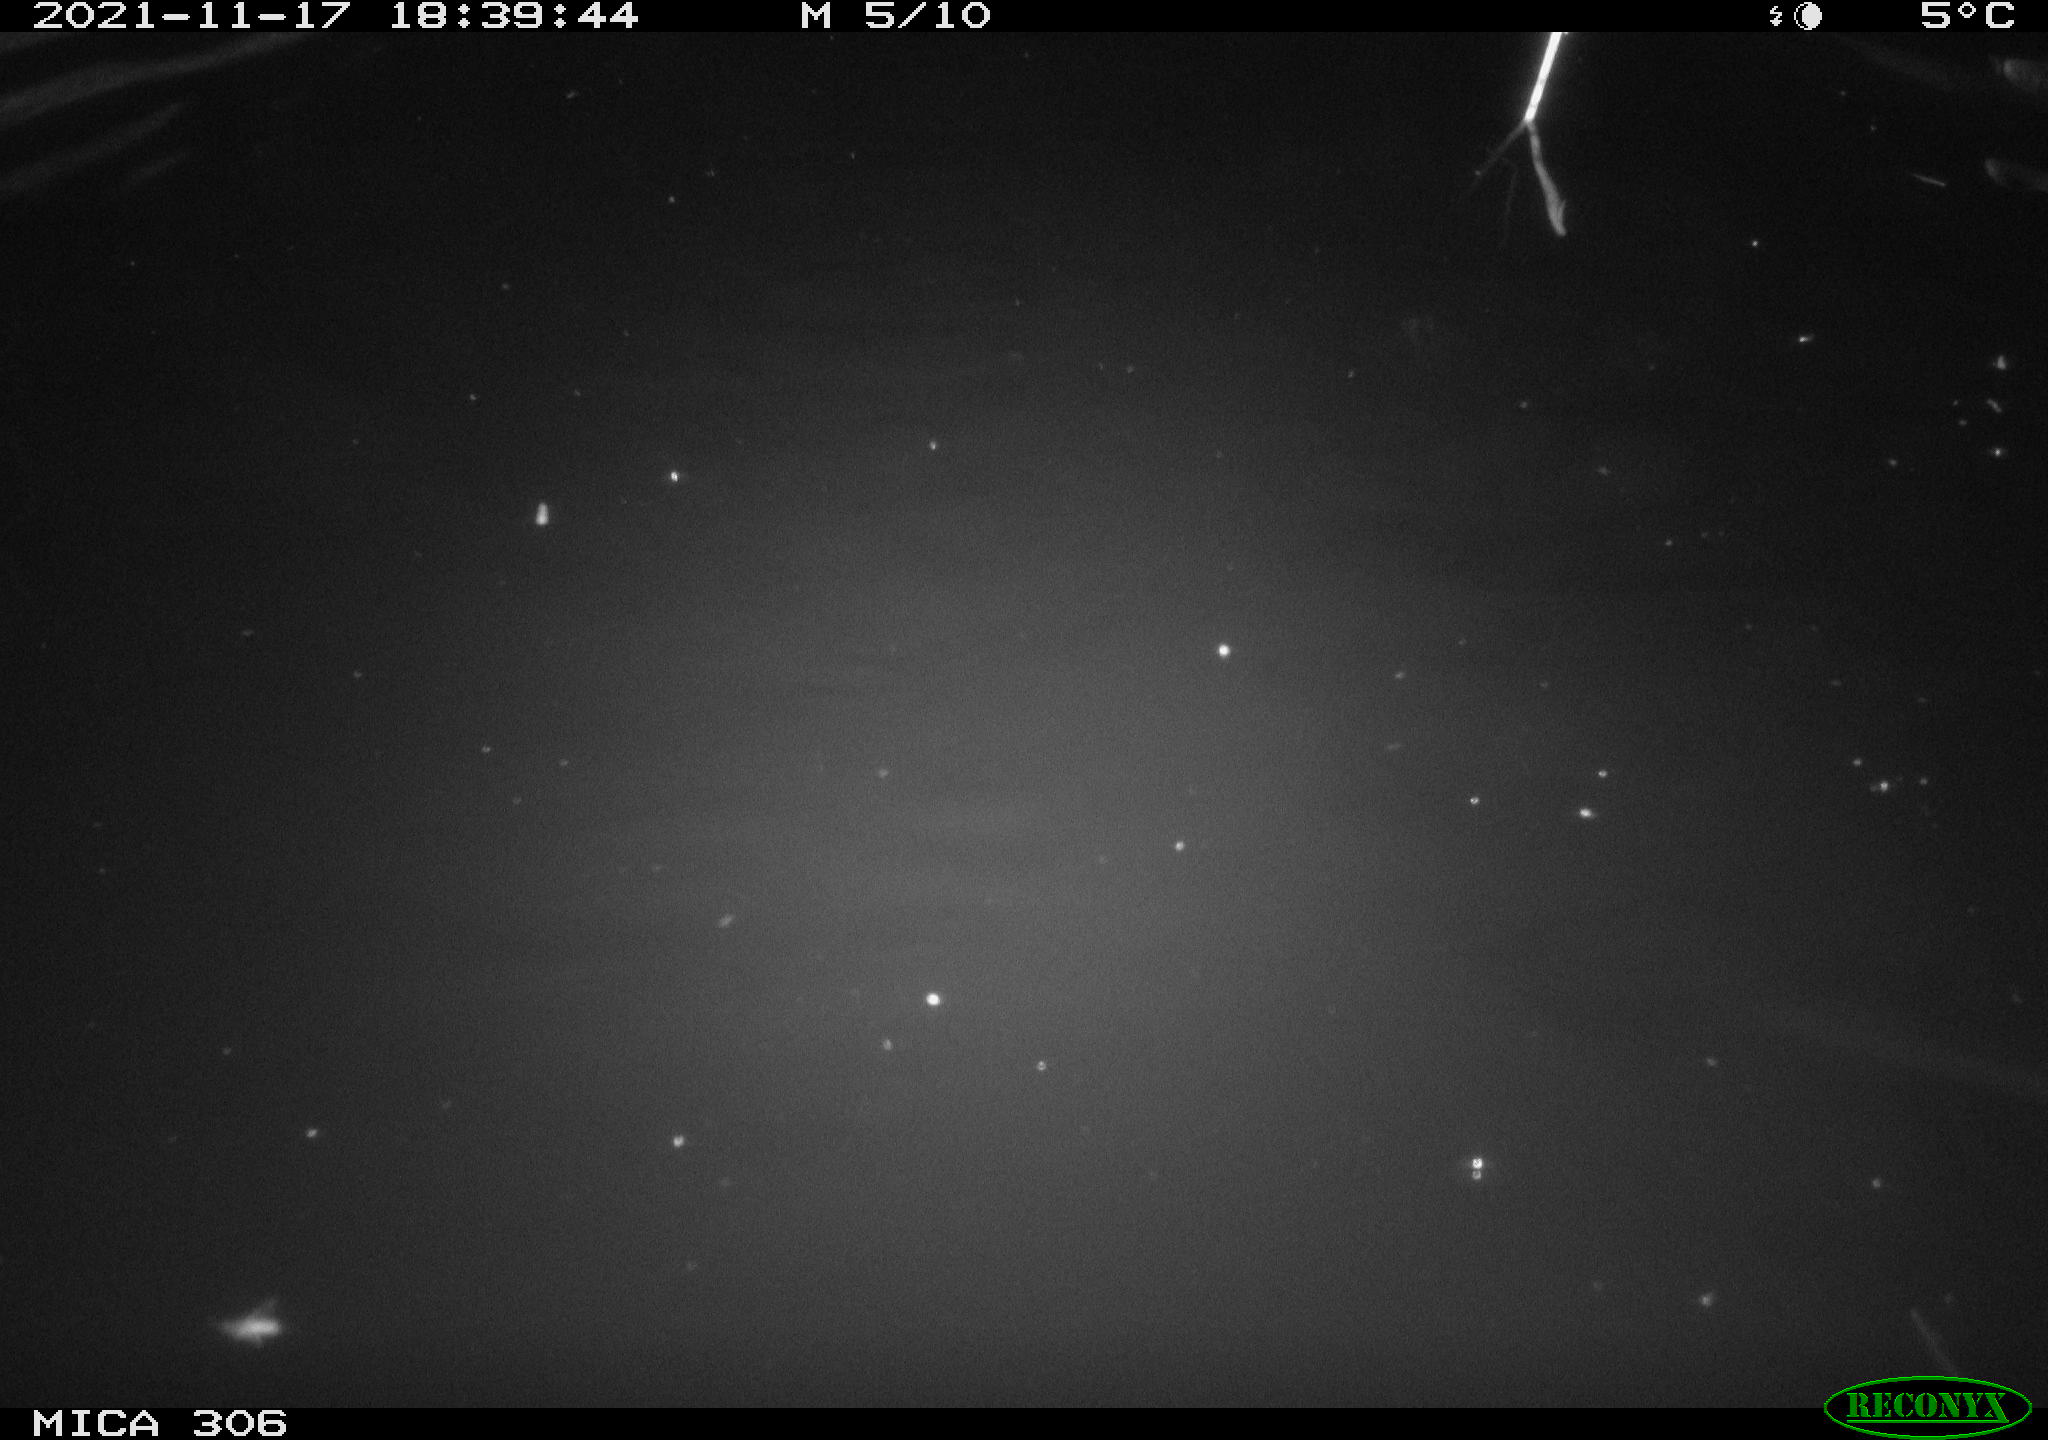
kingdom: Animalia
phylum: Chordata
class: Mammalia
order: Rodentia
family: Cricetidae
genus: Ondatra
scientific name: Ondatra zibethicus
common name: Muskrat
